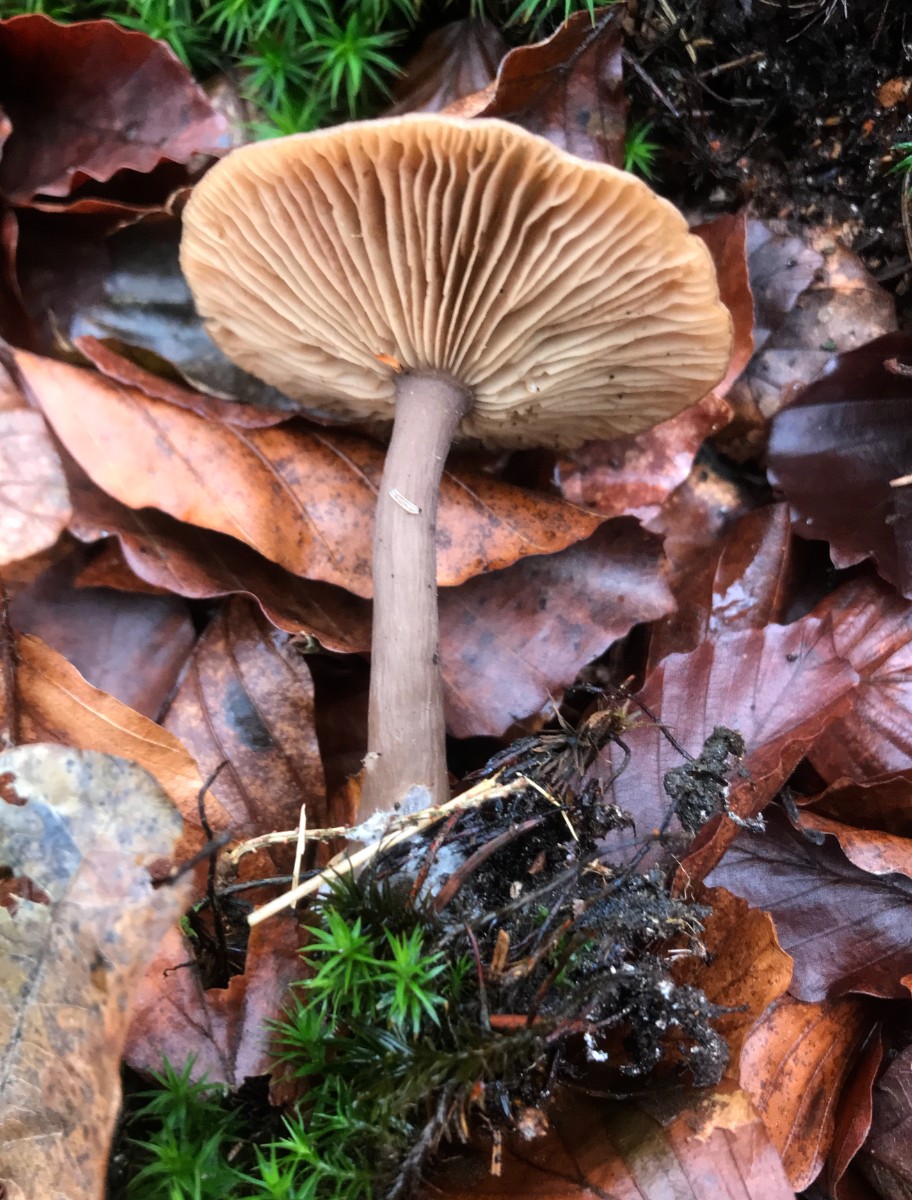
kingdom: Fungi
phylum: Basidiomycota
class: Agaricomycetes
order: Agaricales
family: Pseudoclitocybaceae
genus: Pseudoclitocybe
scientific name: Pseudoclitocybe cyathiformis
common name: almindelig bægertragthat
